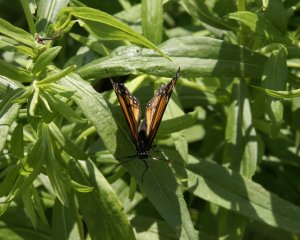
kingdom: Animalia
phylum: Arthropoda
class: Insecta
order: Lepidoptera
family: Nymphalidae
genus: Limenitis
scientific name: Limenitis archippus
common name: Viceroy
